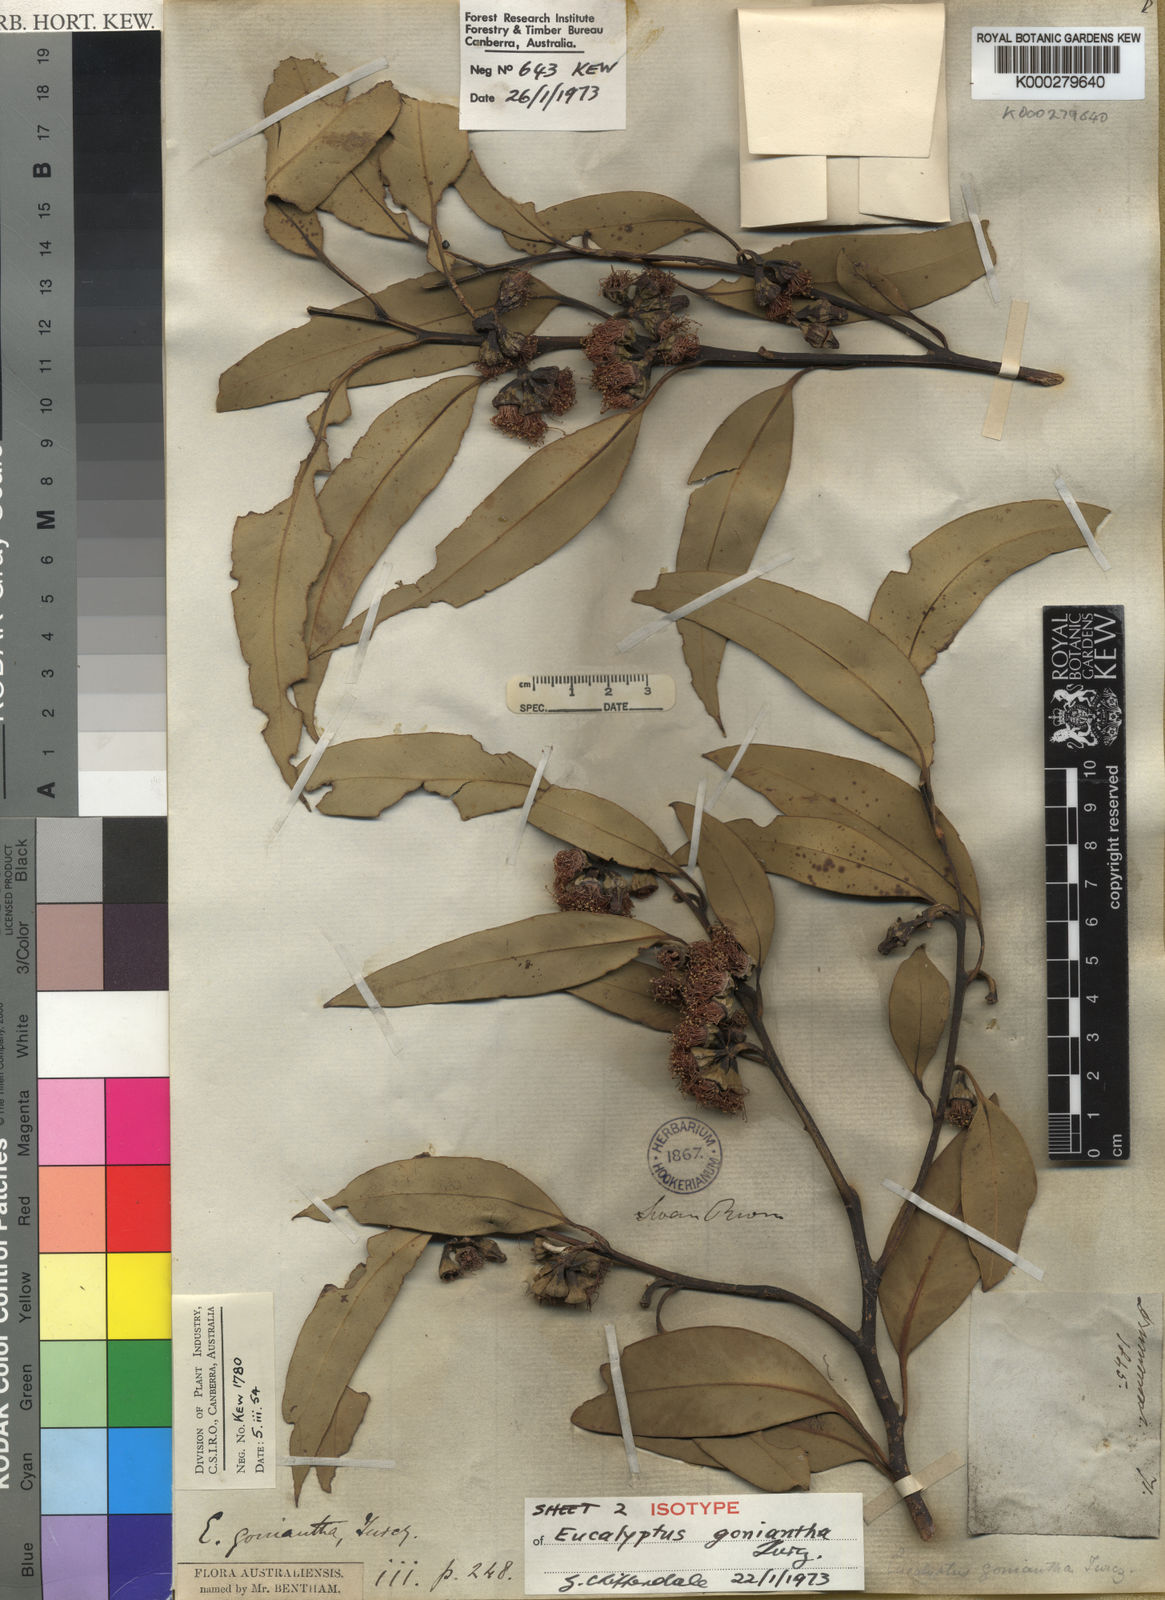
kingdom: Plantae
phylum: Tracheophyta
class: Magnoliopsida
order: Myrtales
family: Myrtaceae
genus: Eucalyptus
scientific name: Eucalyptus goniantha
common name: Kessell's mallee
